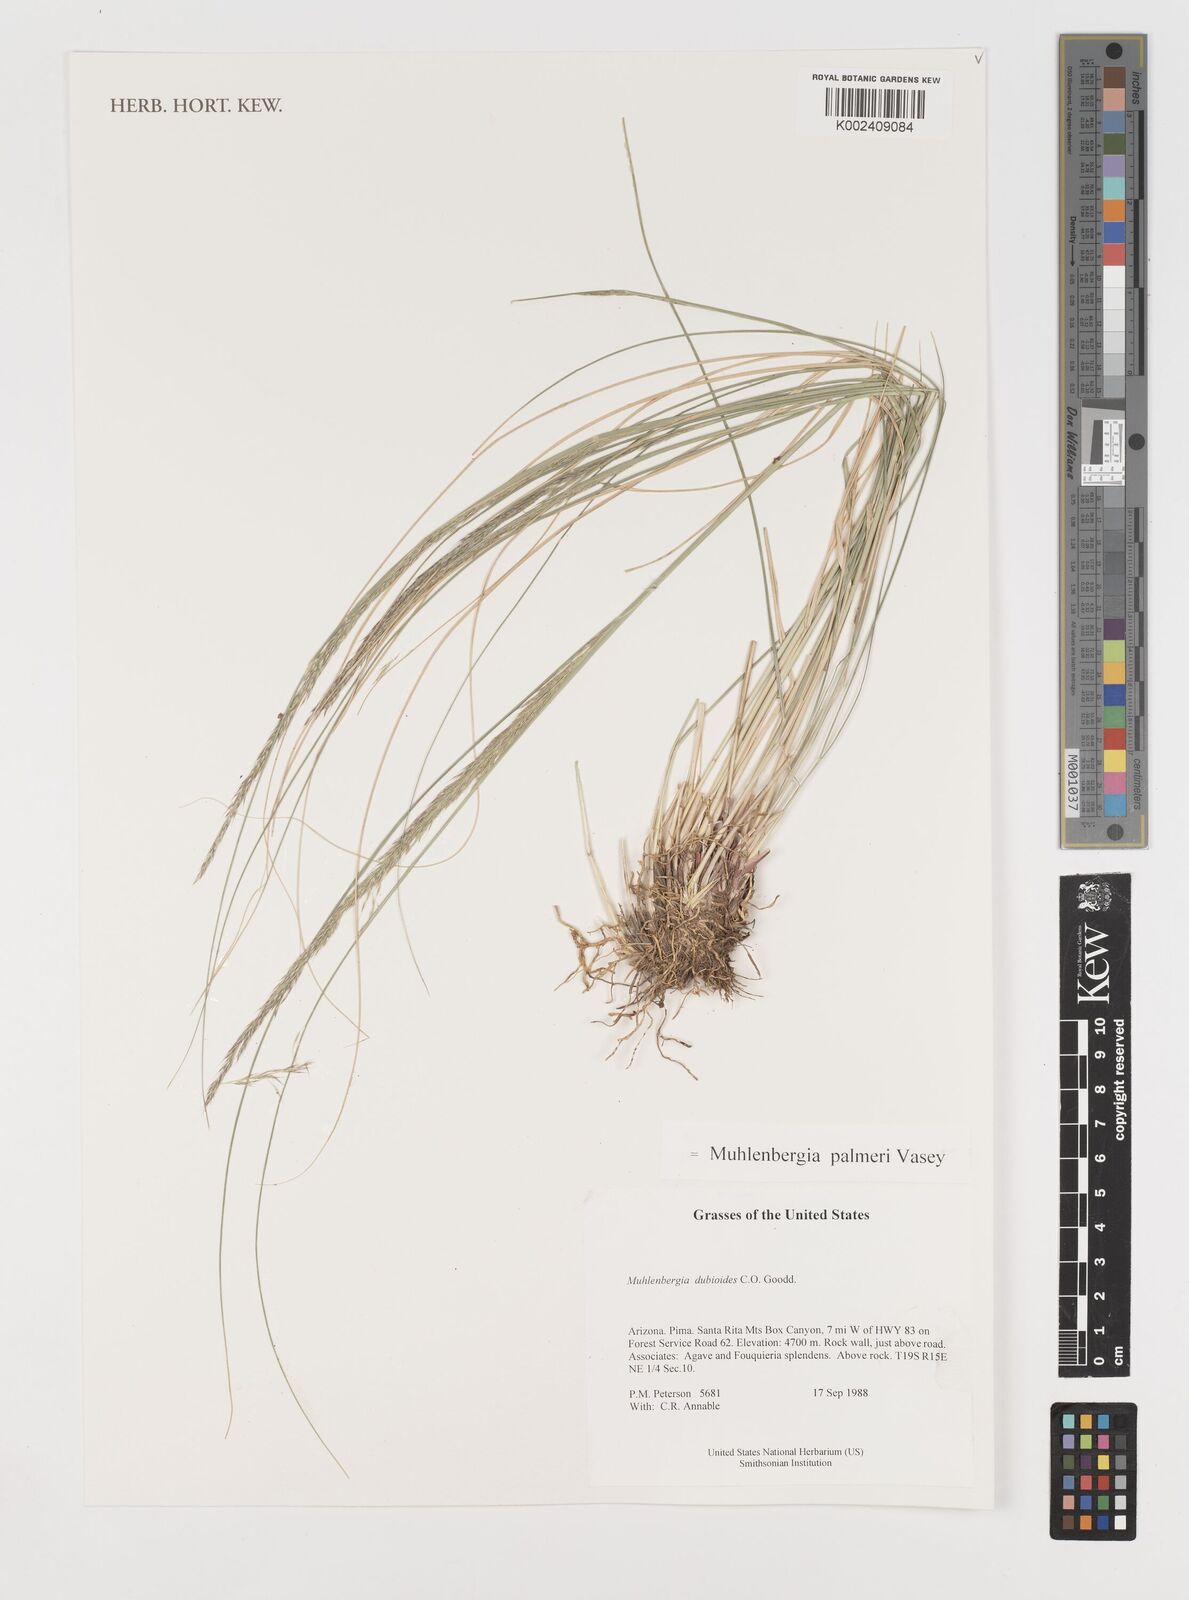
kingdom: Plantae
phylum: Tracheophyta
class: Liliopsida
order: Poales
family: Poaceae
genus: Muhlenbergia
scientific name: Muhlenbergia palmeri
